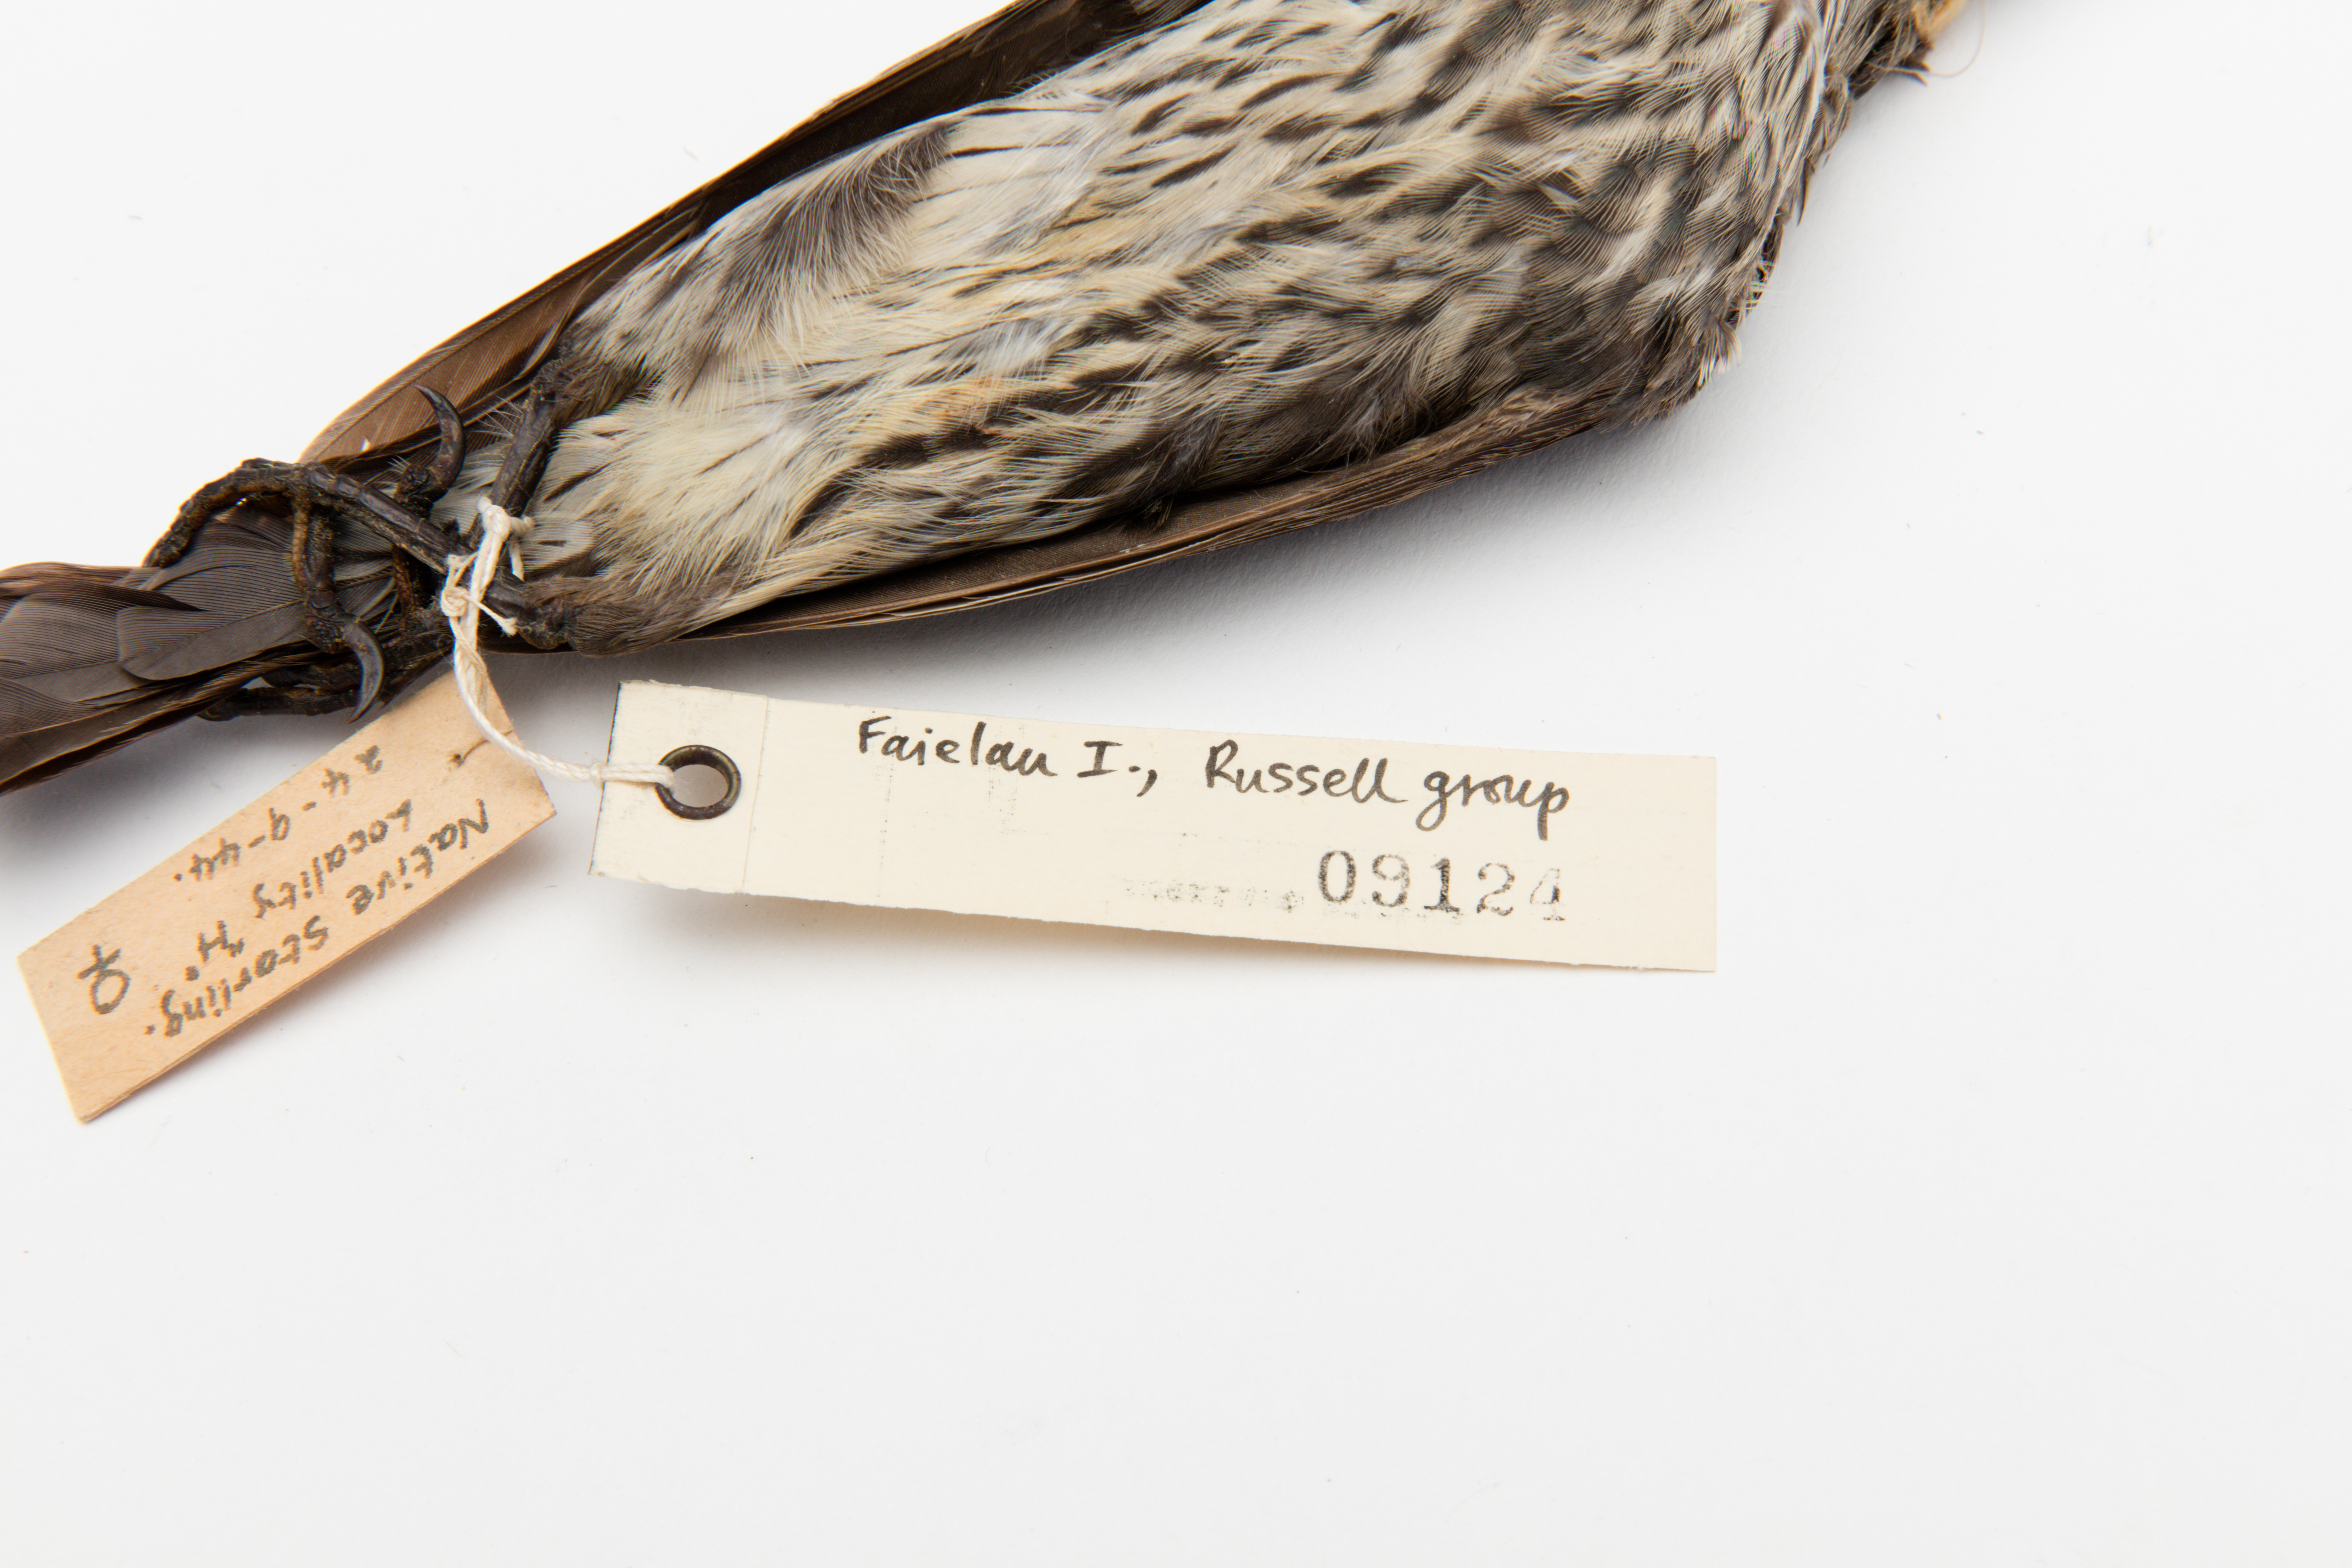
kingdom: Animalia
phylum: Chordata
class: Aves
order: Passeriformes
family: Sturnidae
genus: Aplonis
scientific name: Aplonis cantoroides
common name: Singing starling
